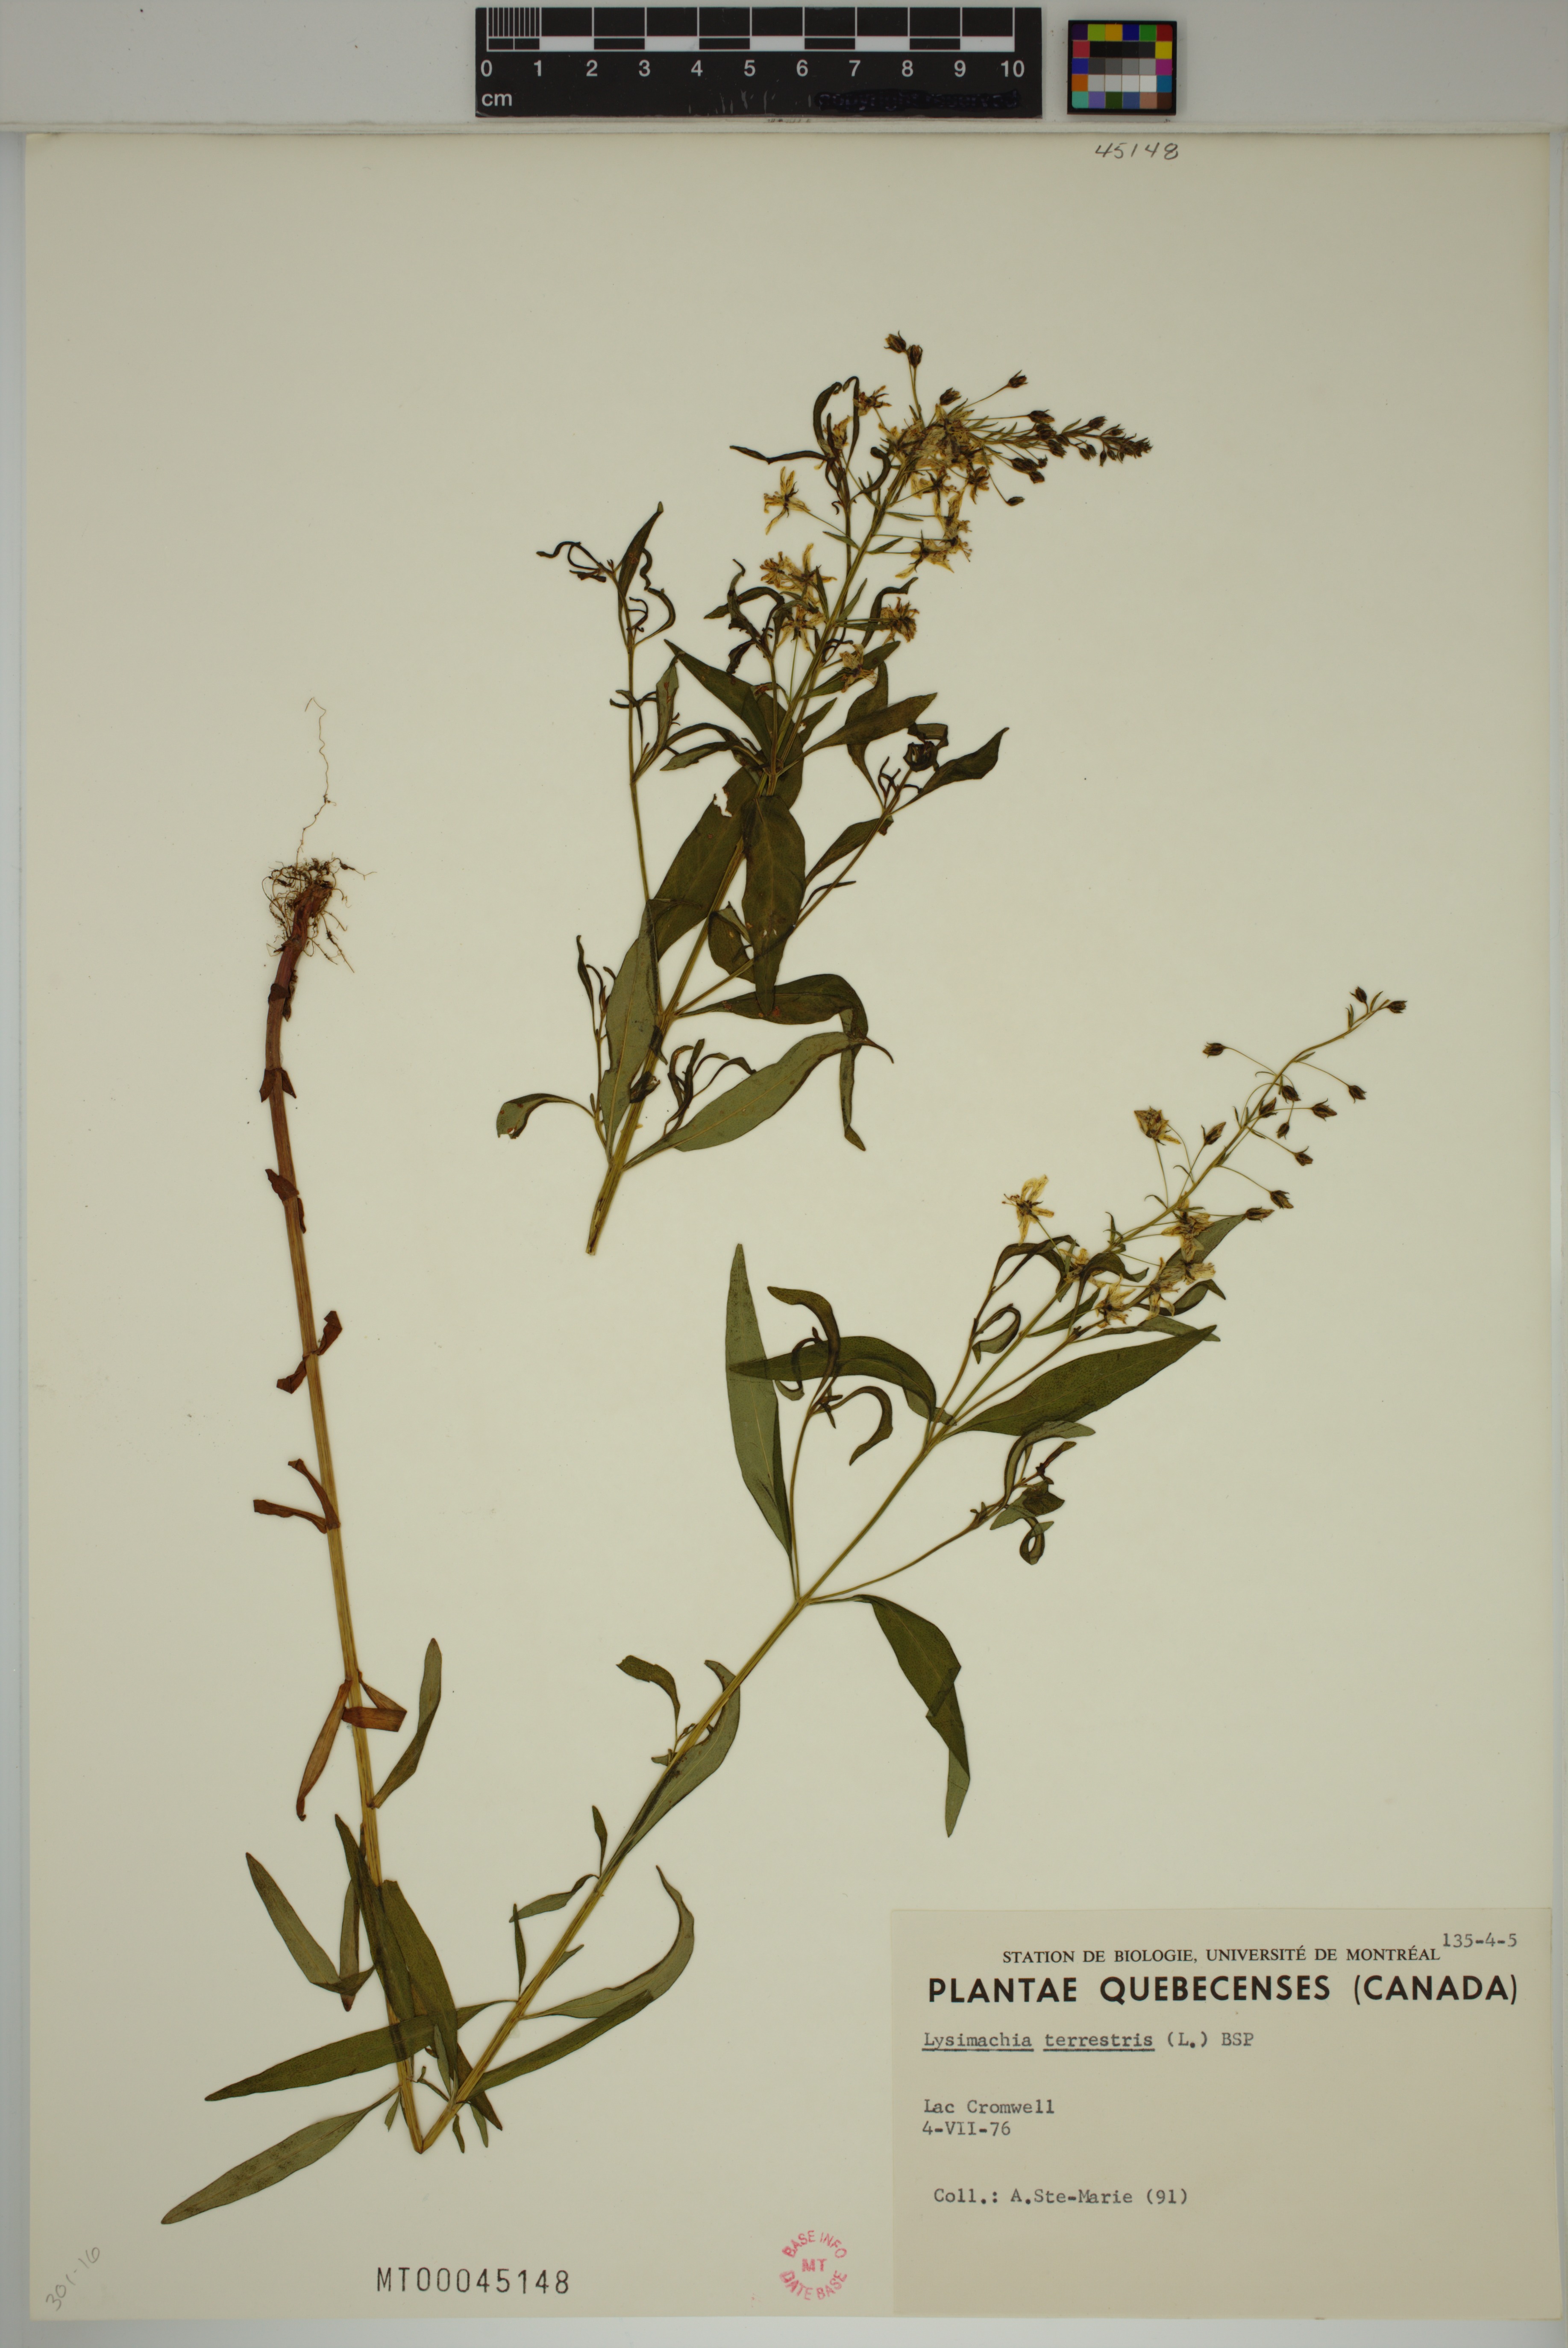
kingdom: Plantae
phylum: Tracheophyta
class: Magnoliopsida
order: Ericales
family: Primulaceae
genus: Lysimachia
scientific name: Lysimachia terrestris
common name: Lake loosestrife
